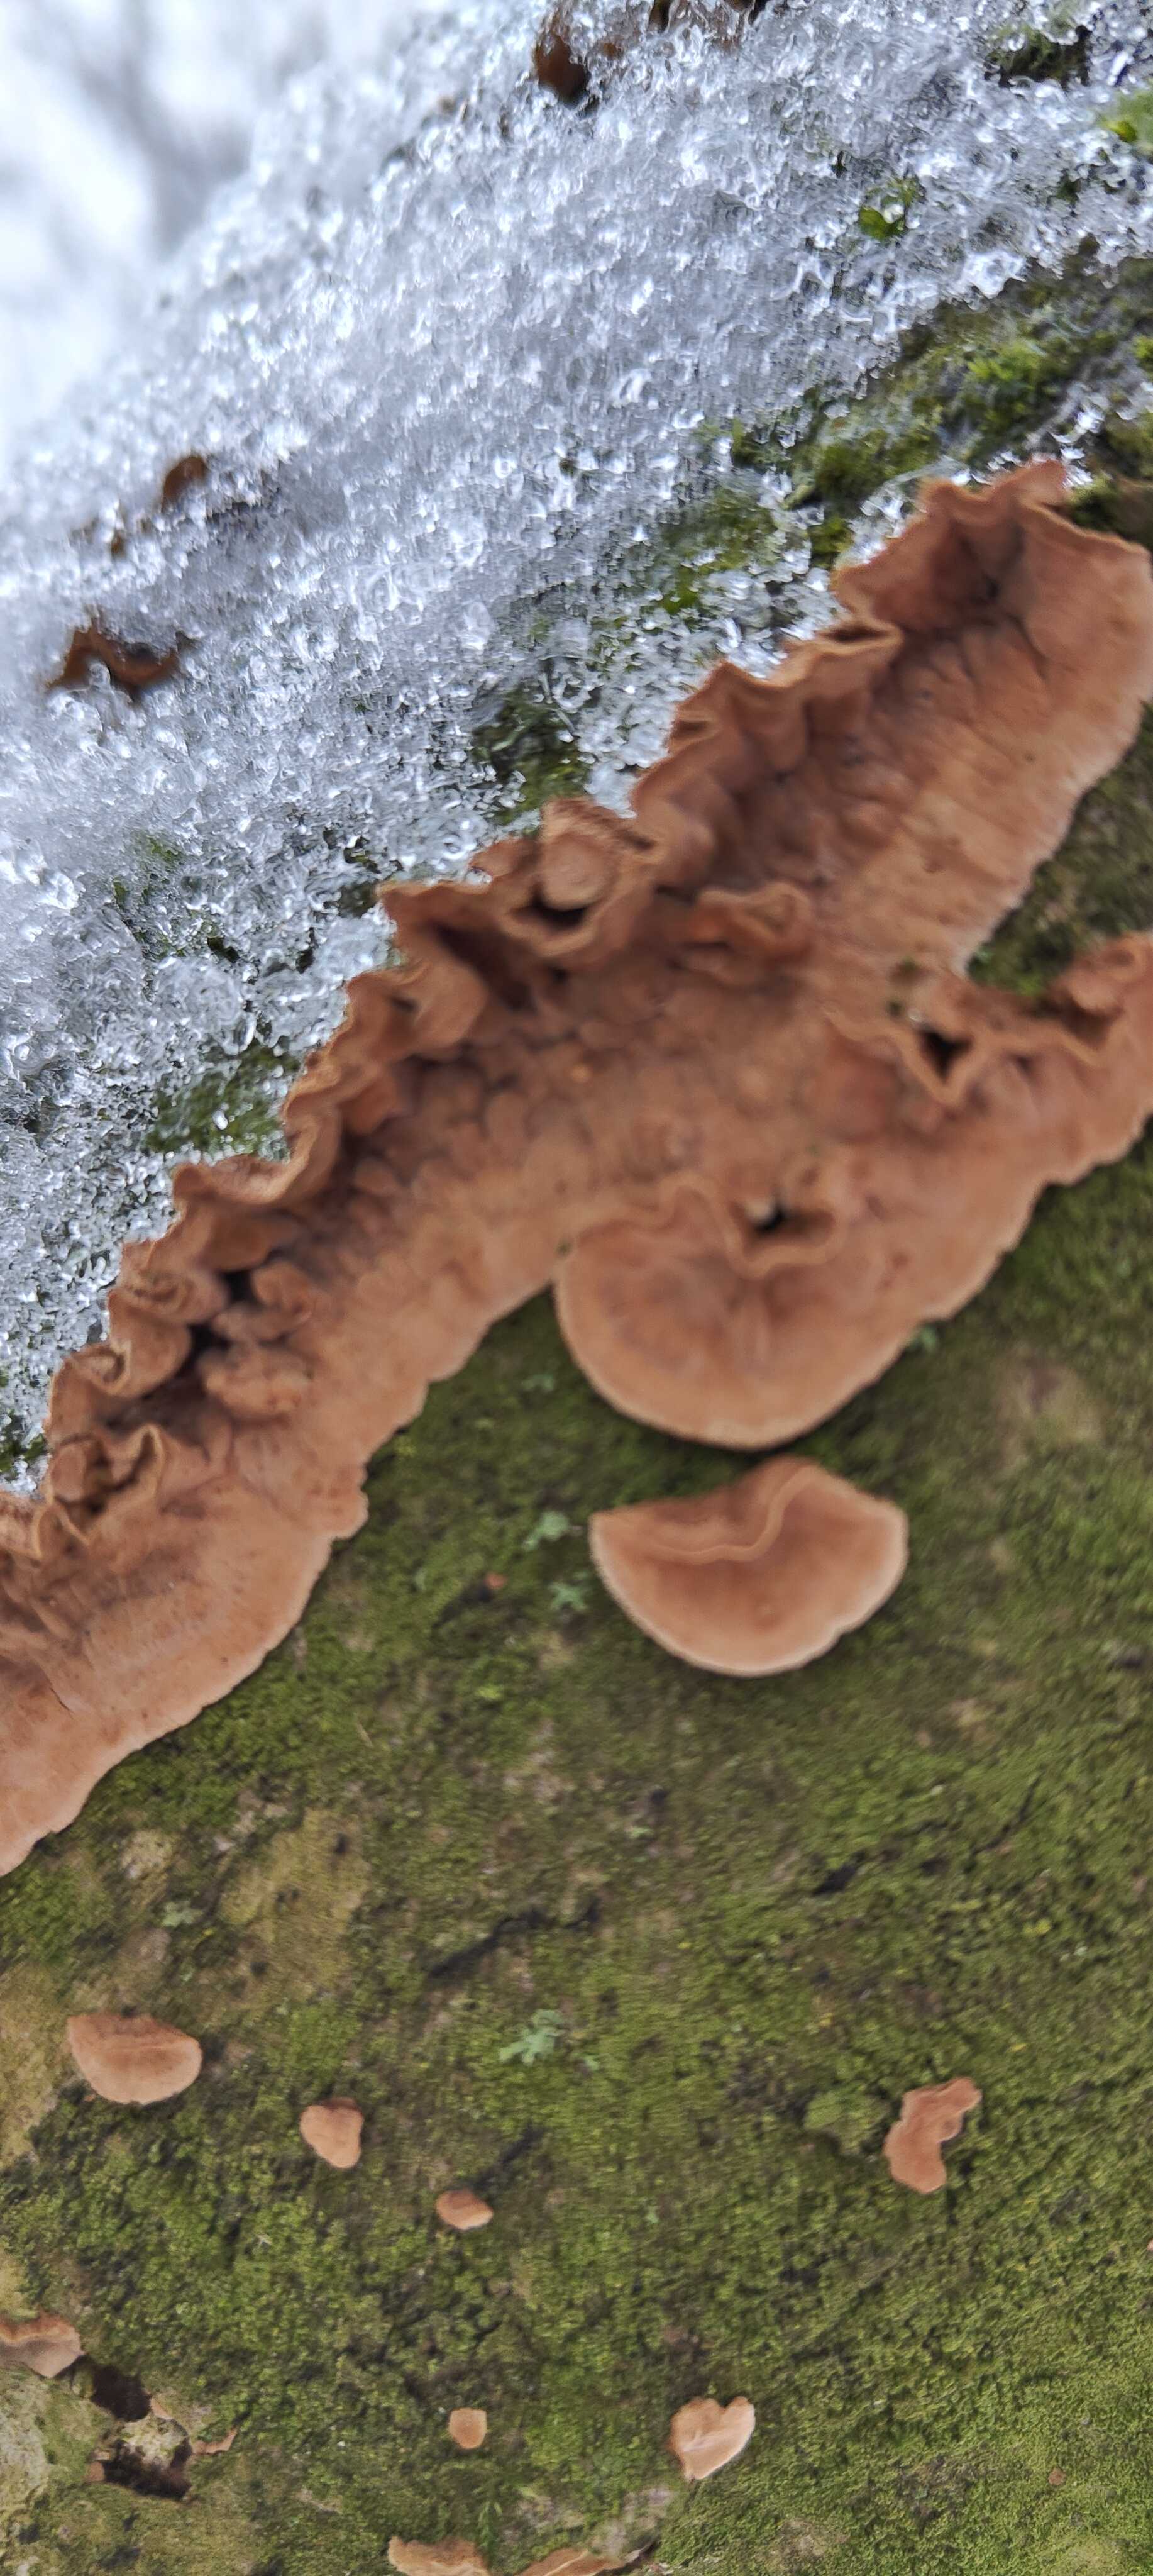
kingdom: Fungi
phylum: Basidiomycota
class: Agaricomycetes
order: Russulales
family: Stereaceae
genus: Stereum
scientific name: Stereum hirsutum
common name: håret lædersvamp
